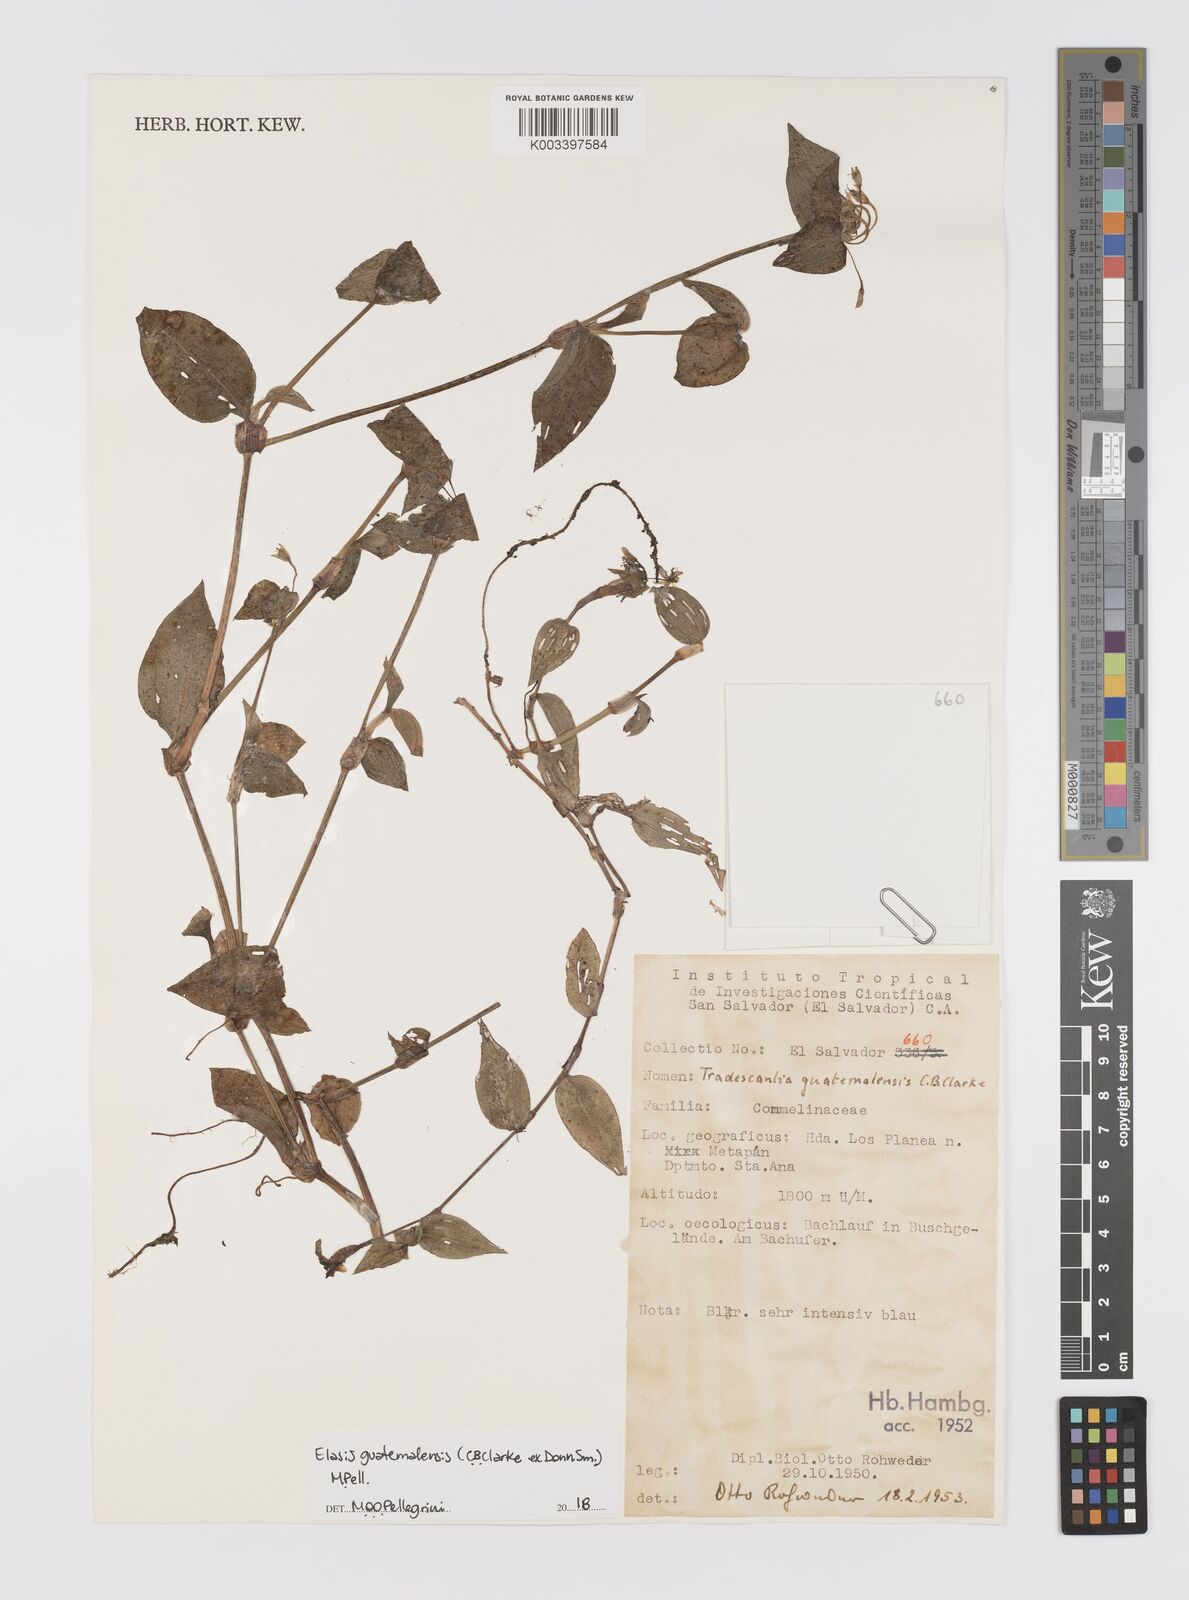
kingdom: Plantae
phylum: Tracheophyta
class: Liliopsida
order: Commelinales
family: Commelinaceae
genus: Elasis
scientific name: Elasis guatemalensis
